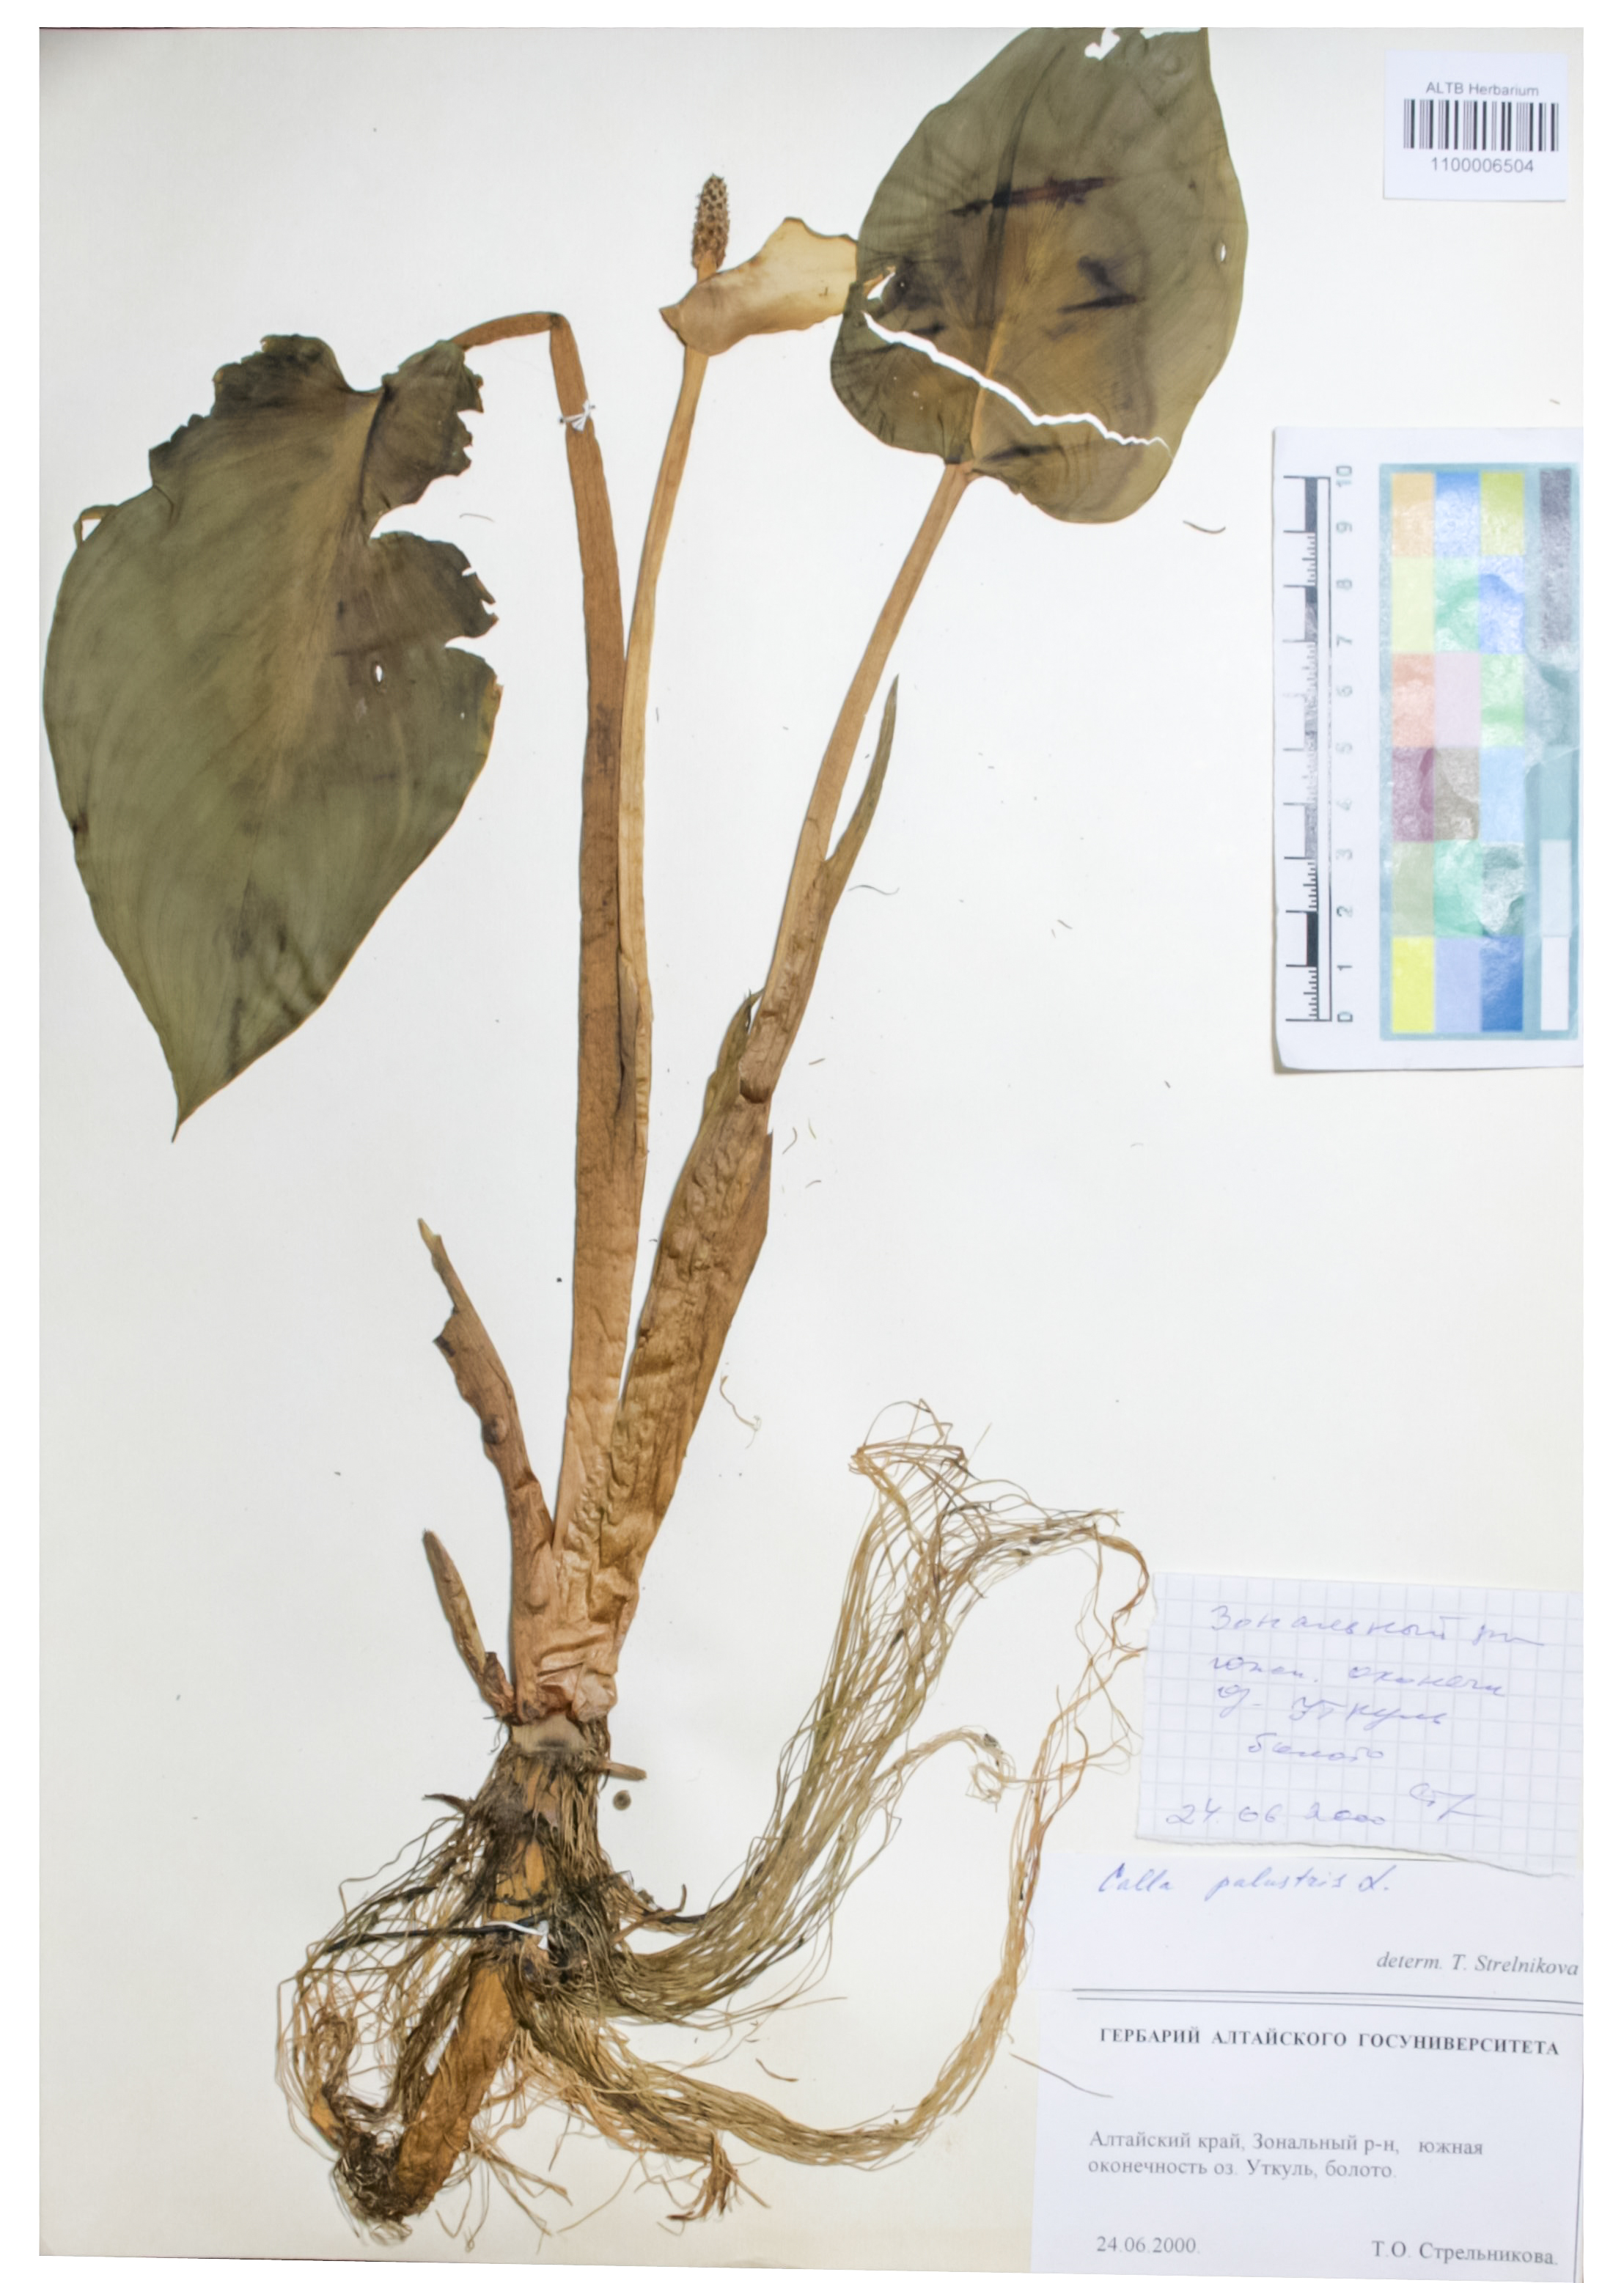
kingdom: Plantae
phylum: Tracheophyta
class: Liliopsida
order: Alismatales
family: Araceae
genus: Calla
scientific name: Calla palustris
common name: Bog arum
